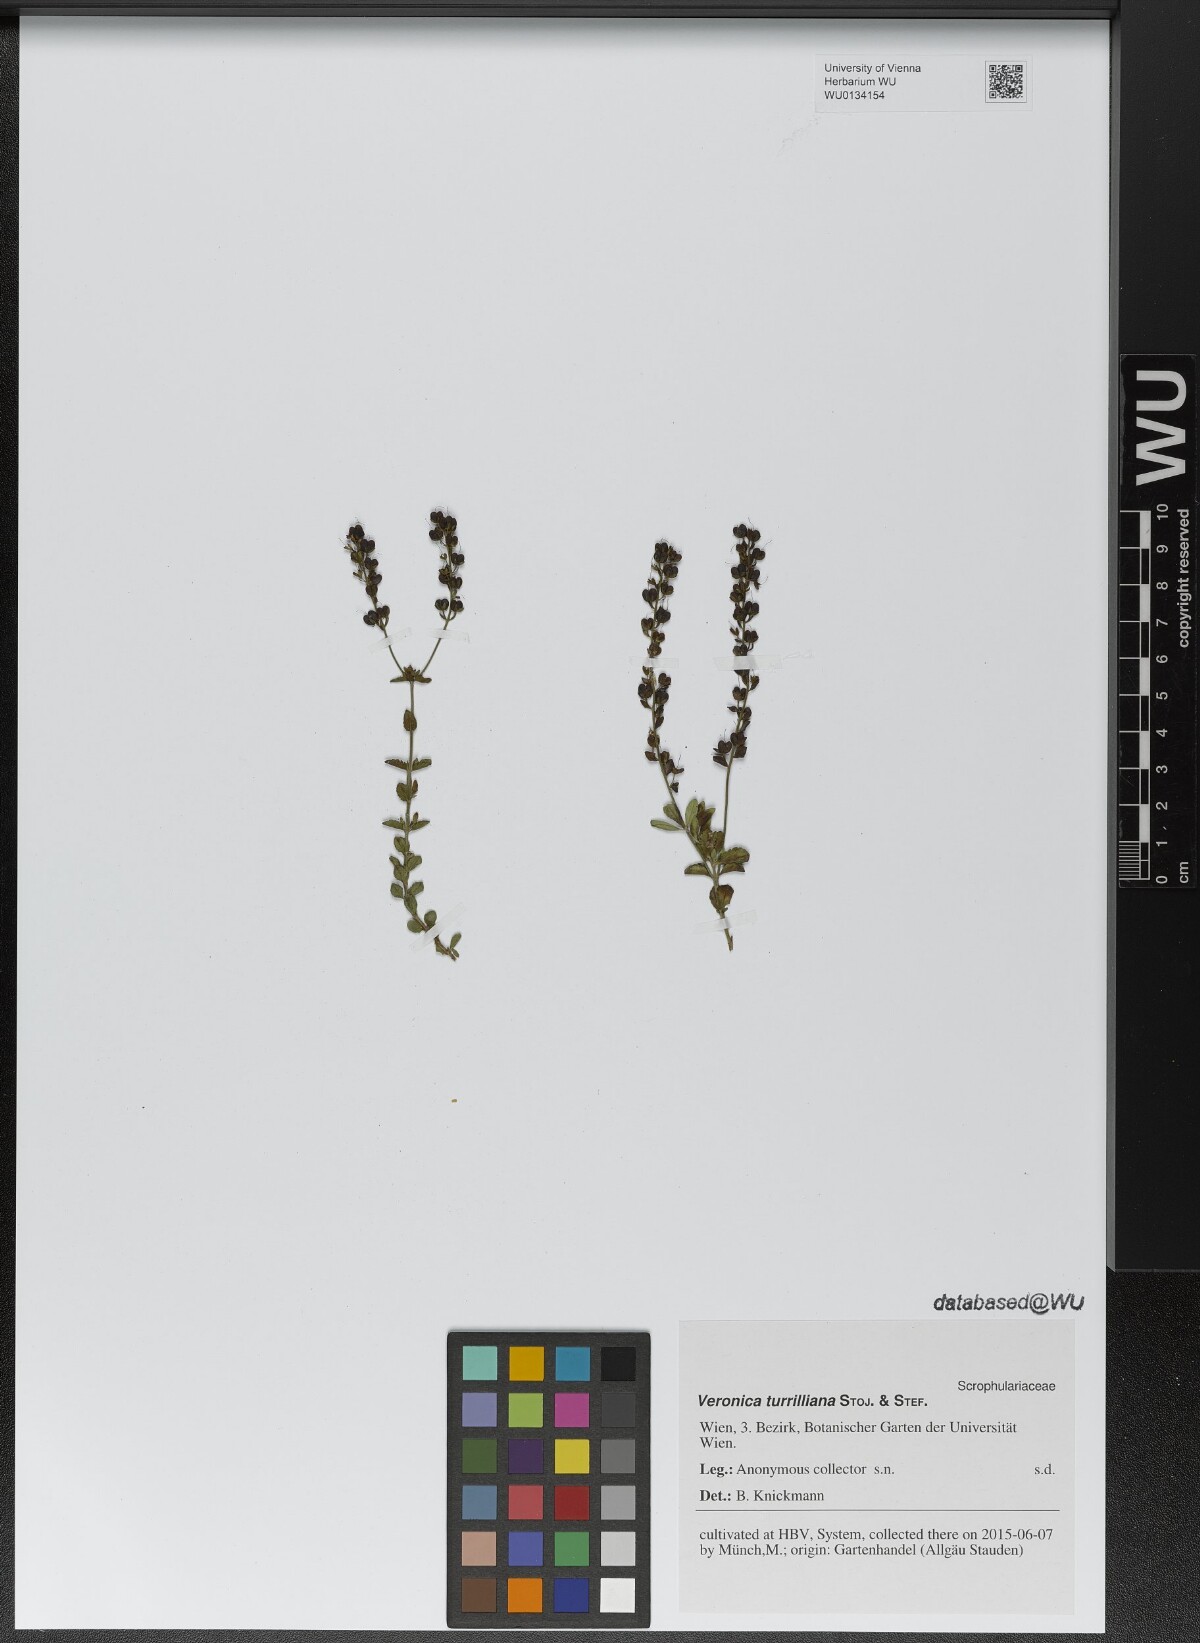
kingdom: Plantae
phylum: Tracheophyta
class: Magnoliopsida
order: Lamiales
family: Plantaginaceae
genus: Veronica
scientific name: Veronica turrilliana
